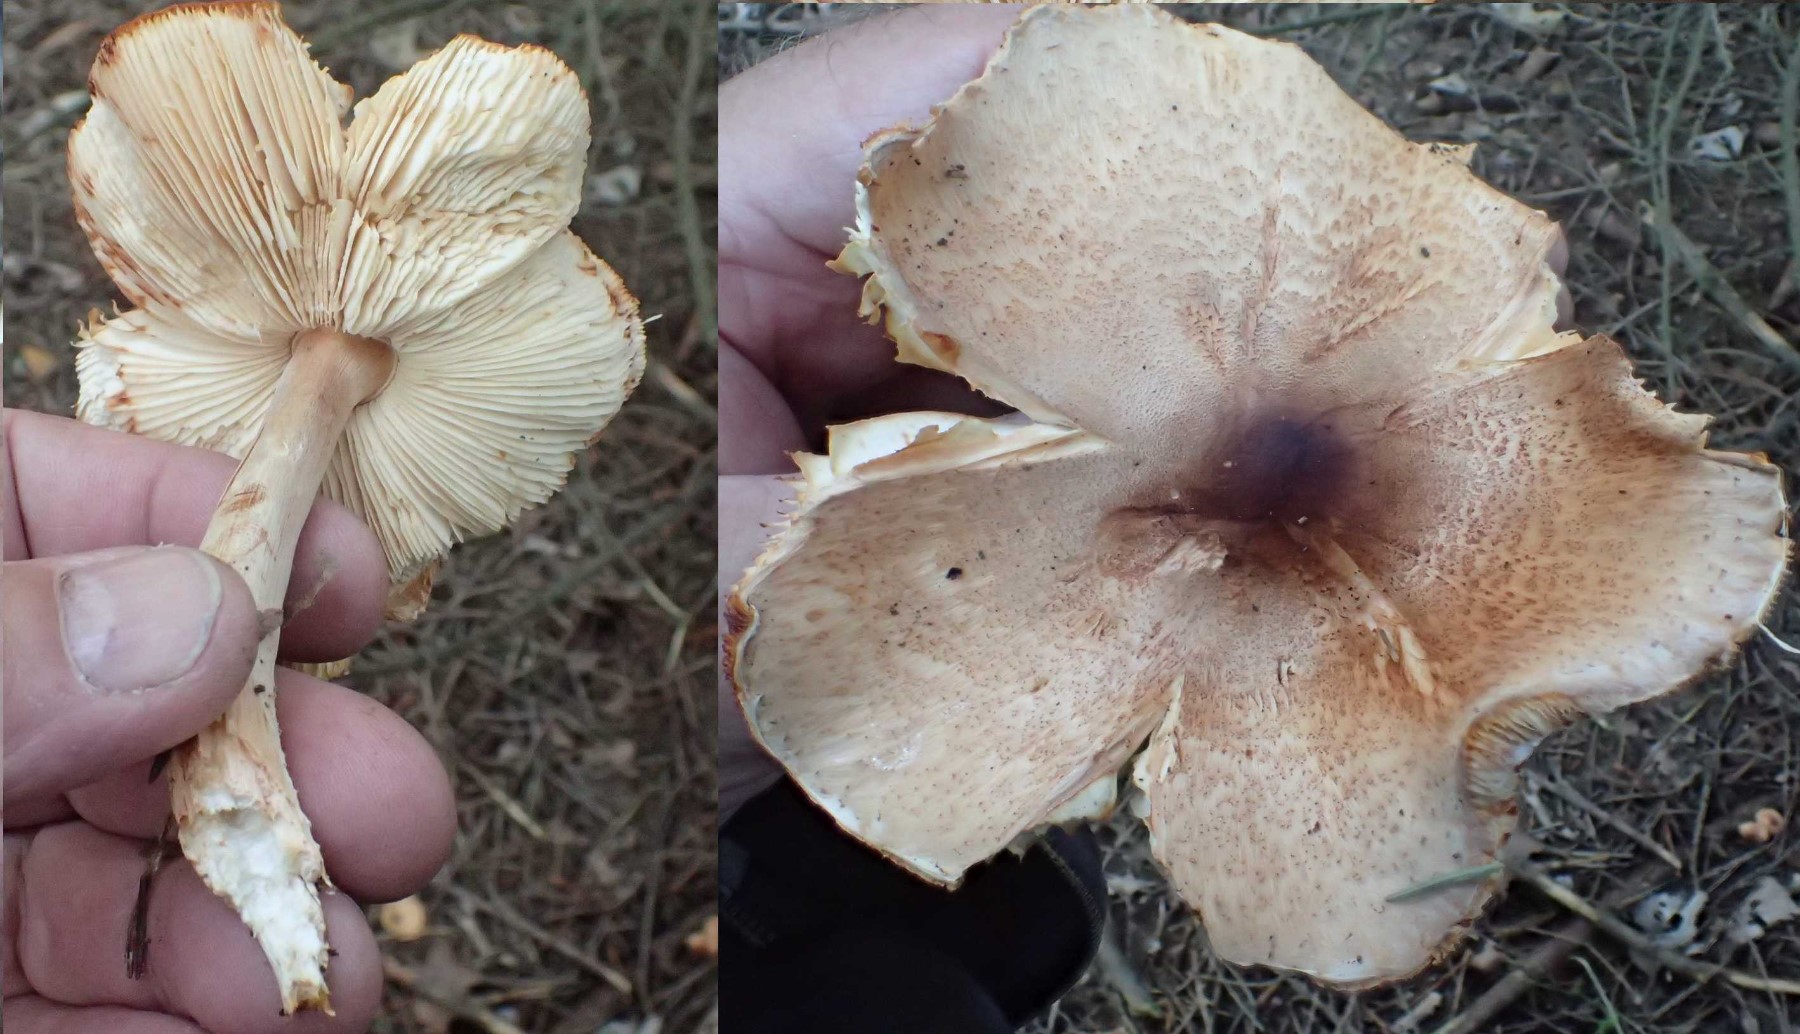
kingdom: Fungi
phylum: Basidiomycota
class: Agaricomycetes
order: Agaricales
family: Agaricaceae
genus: Lepiota
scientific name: Lepiota ochraceofulva
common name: sødtduftende parasolhat
